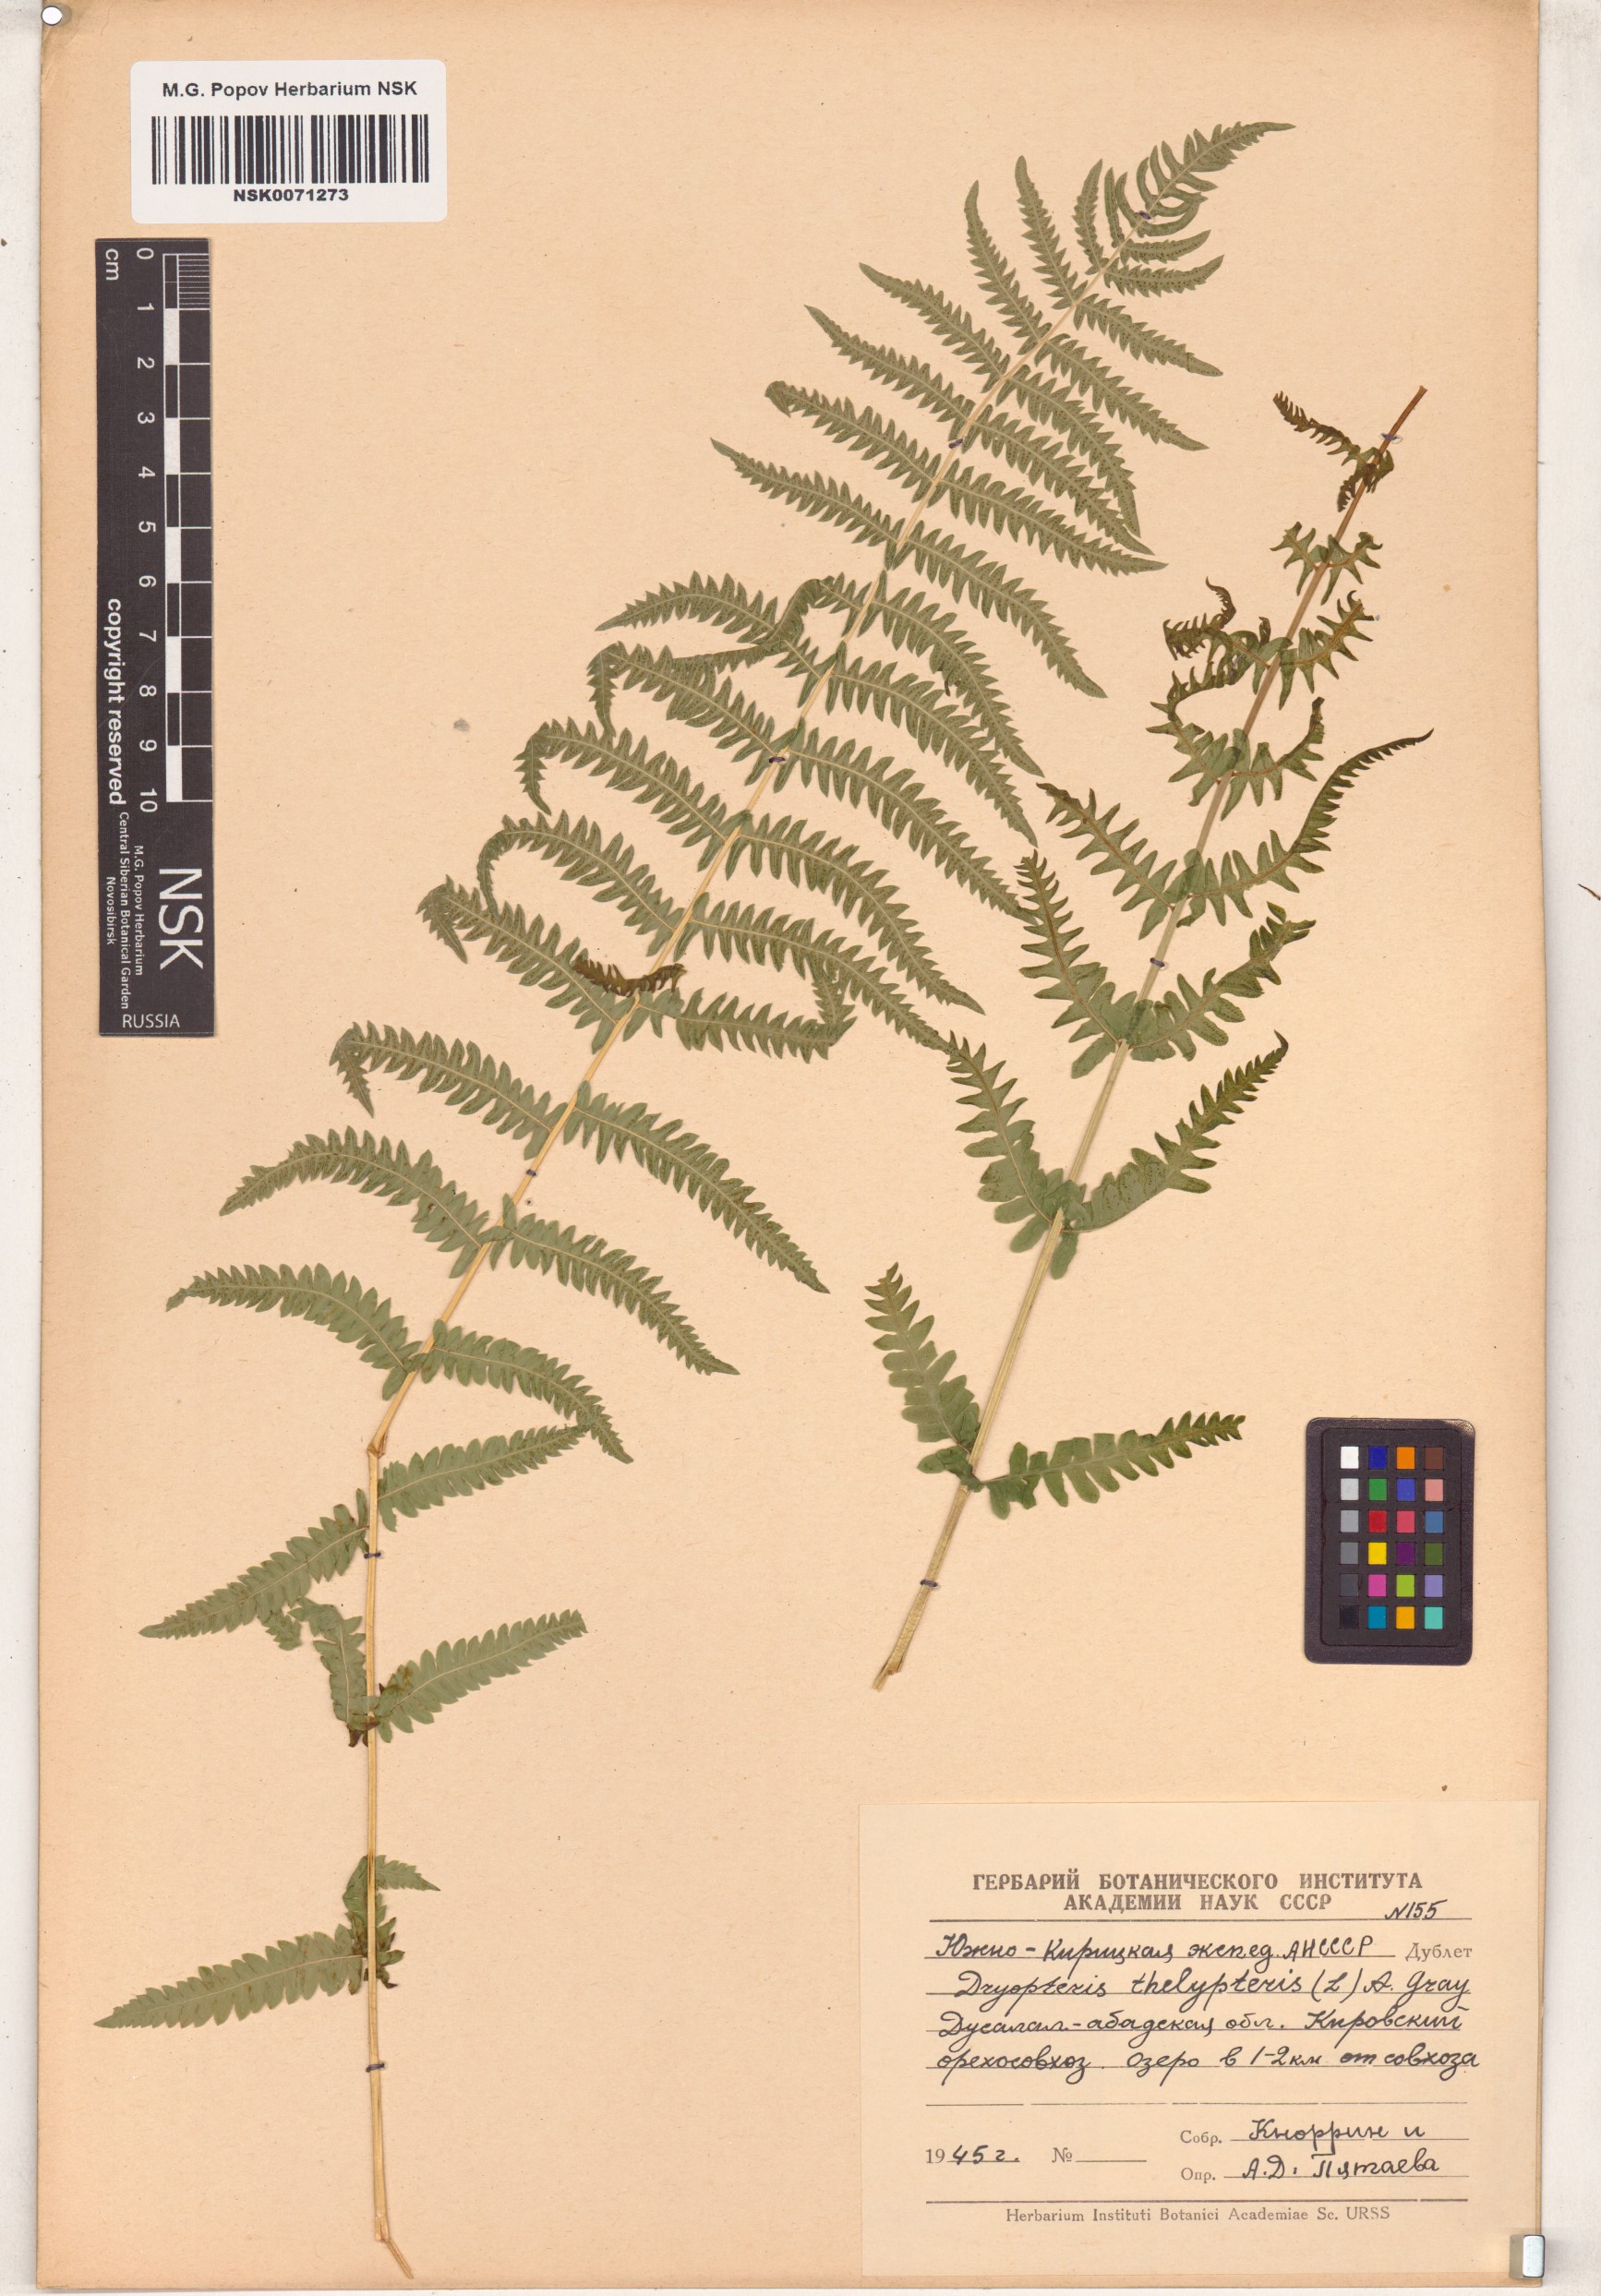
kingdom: Plantae
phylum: Tracheophyta
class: Polypodiopsida
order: Polypodiales
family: Thelypteridaceae
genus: Thelypteris
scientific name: Thelypteris palustris
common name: Marsh fern
